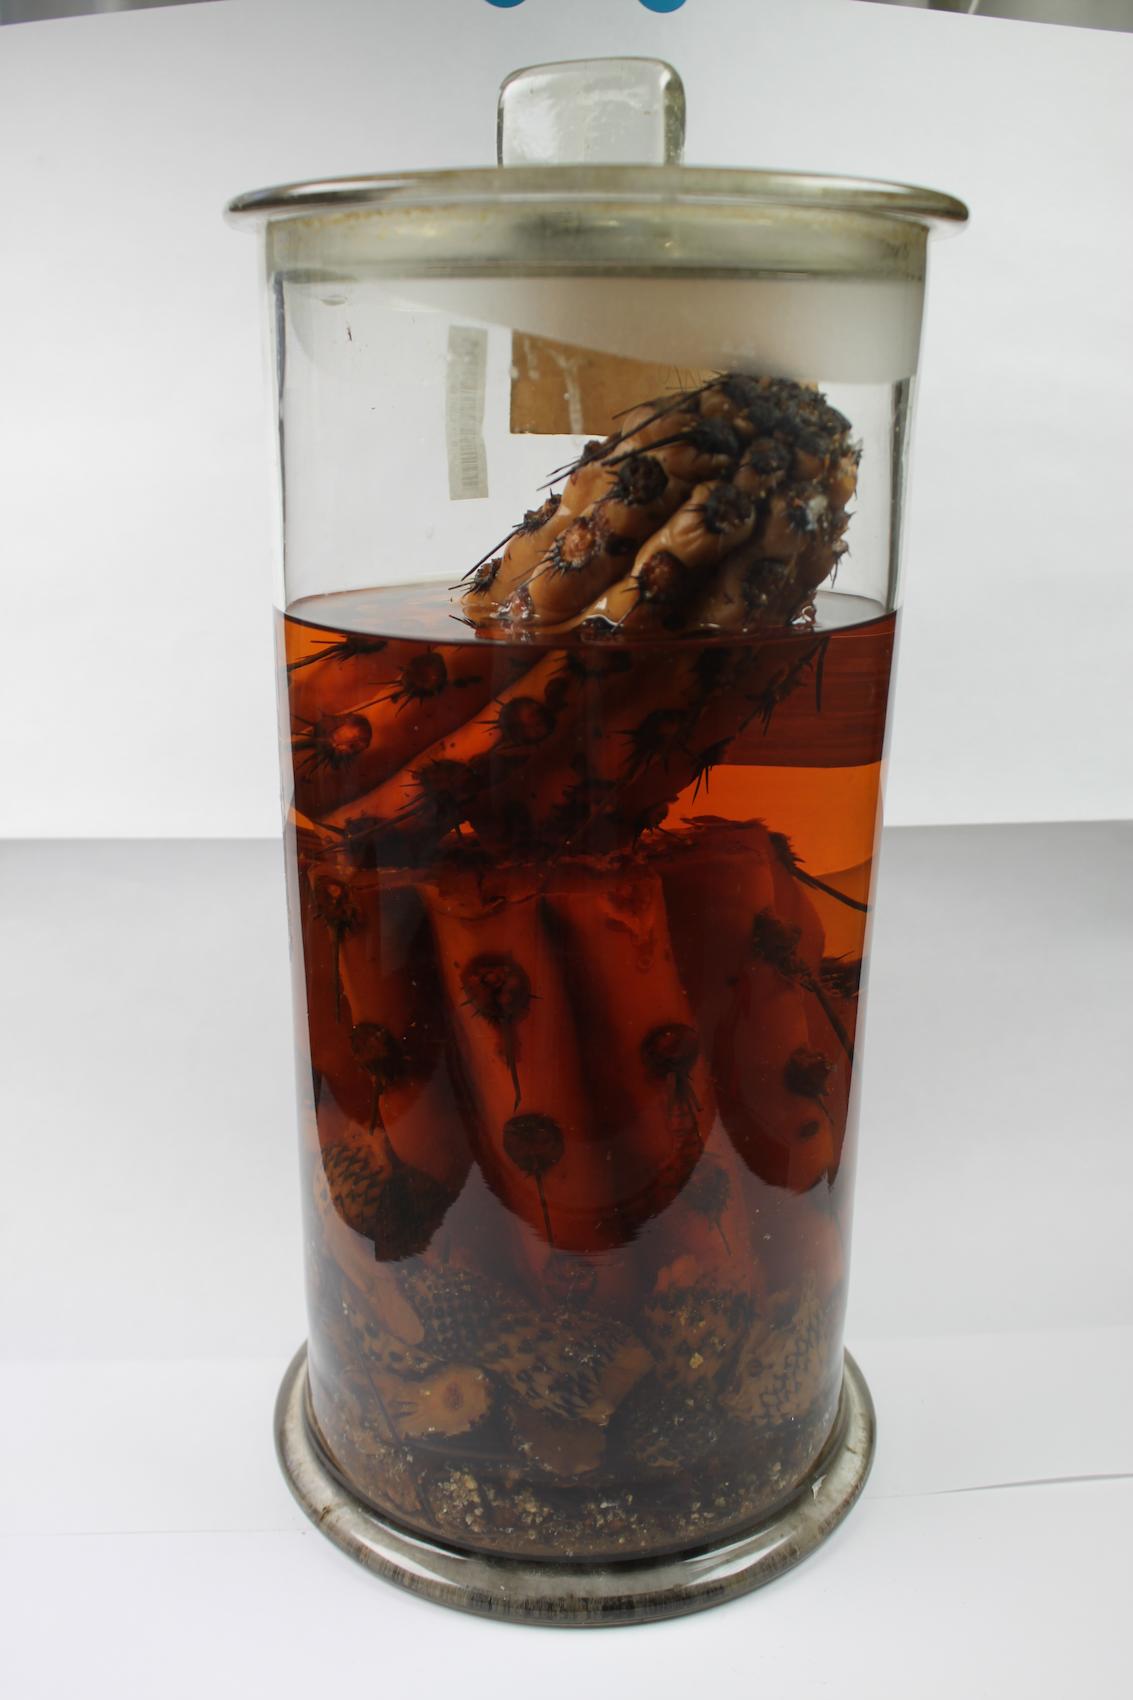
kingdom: Plantae
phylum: Tracheophyta
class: Magnoliopsida
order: Caryophyllales
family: Cactaceae
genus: Corryocactus
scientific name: Corryocactus brachypetalus
